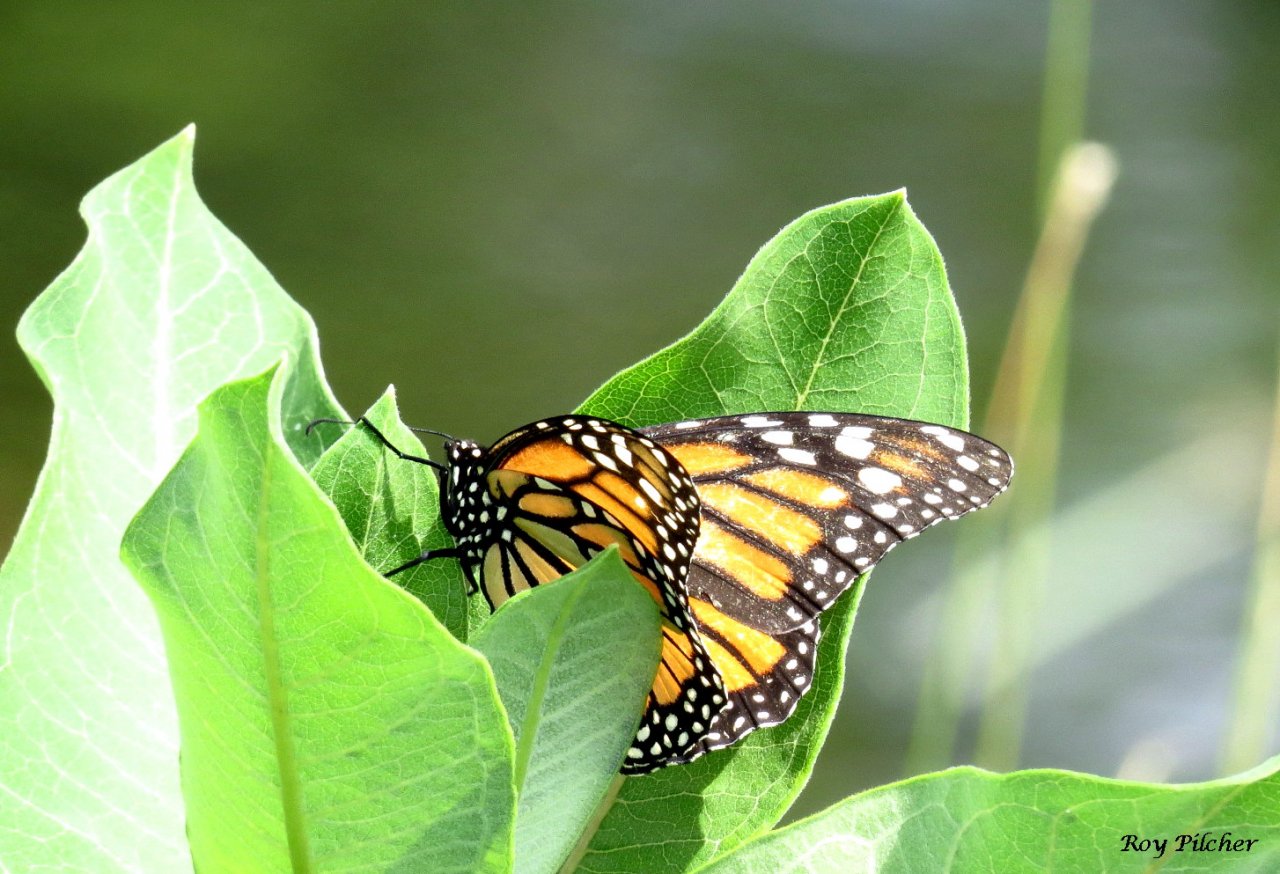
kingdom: Animalia
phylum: Arthropoda
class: Insecta
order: Lepidoptera
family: Nymphalidae
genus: Danaus
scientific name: Danaus plexippus
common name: Monarch
